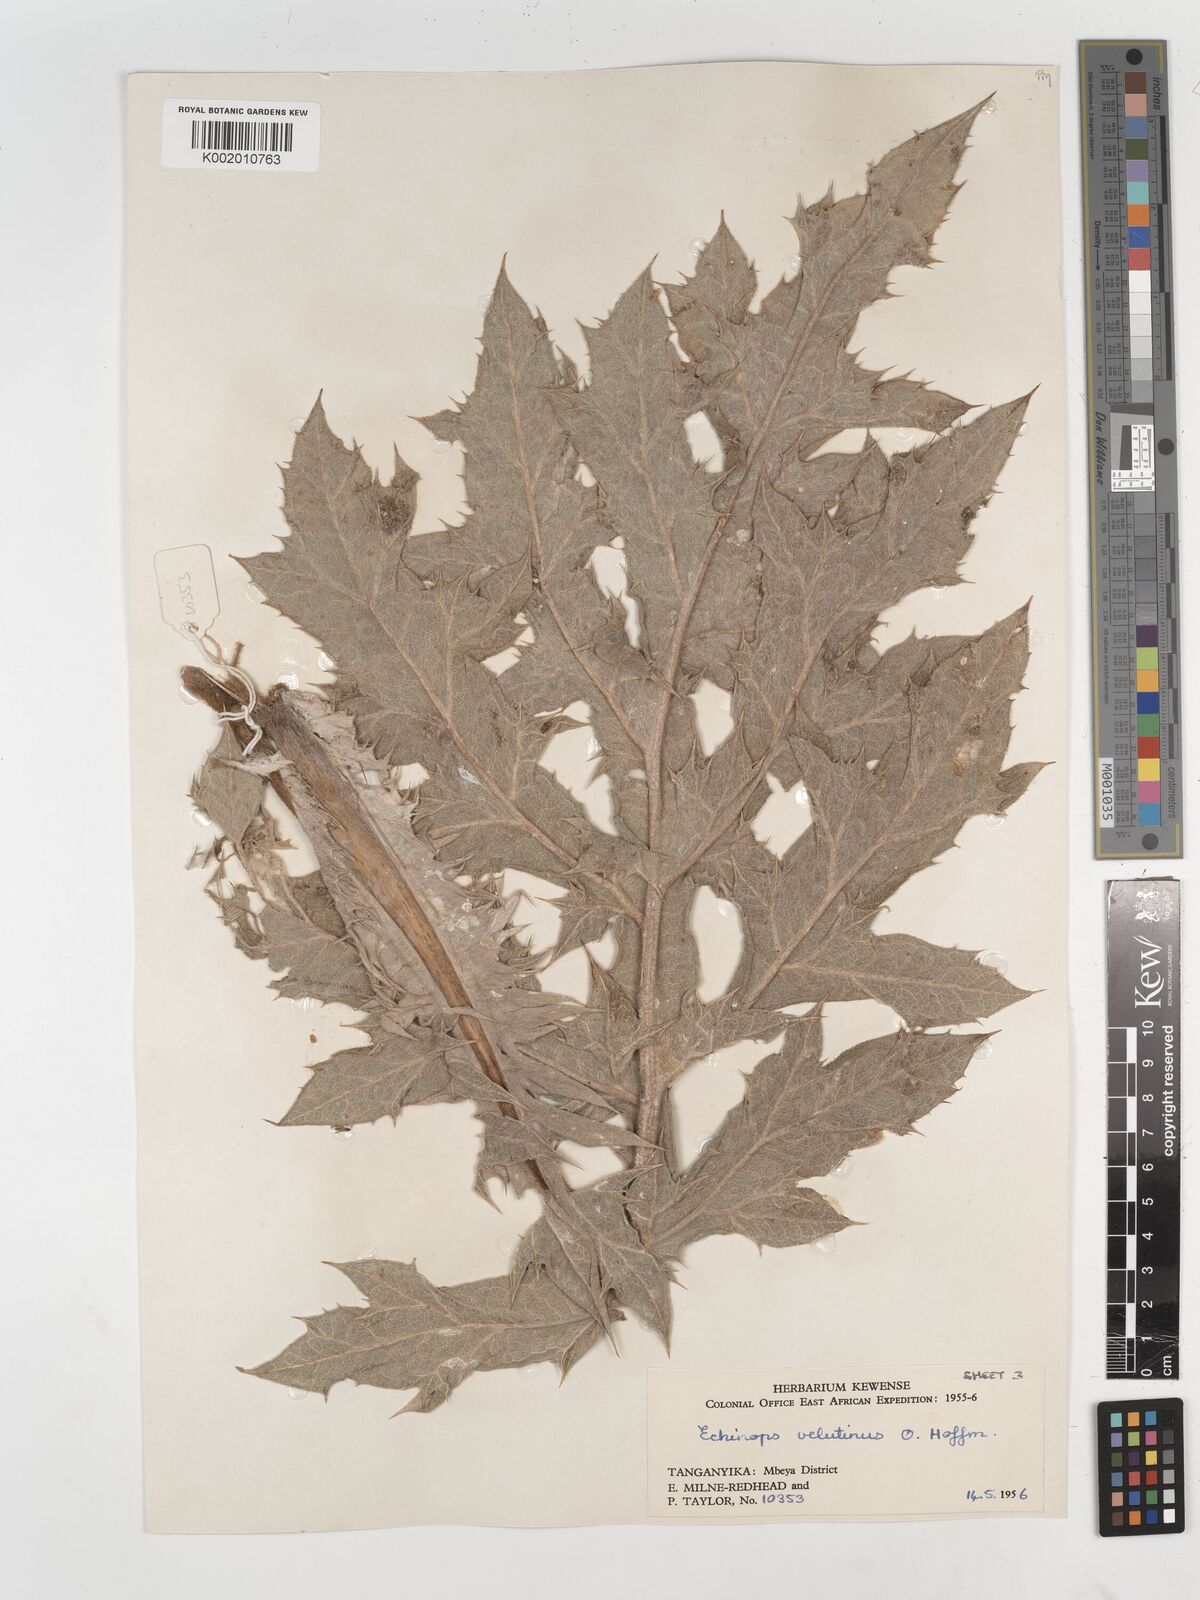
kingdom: Plantae
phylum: Tracheophyta
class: Magnoliopsida
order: Asterales
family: Asteraceae
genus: Echinops
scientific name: Echinops giganteus
